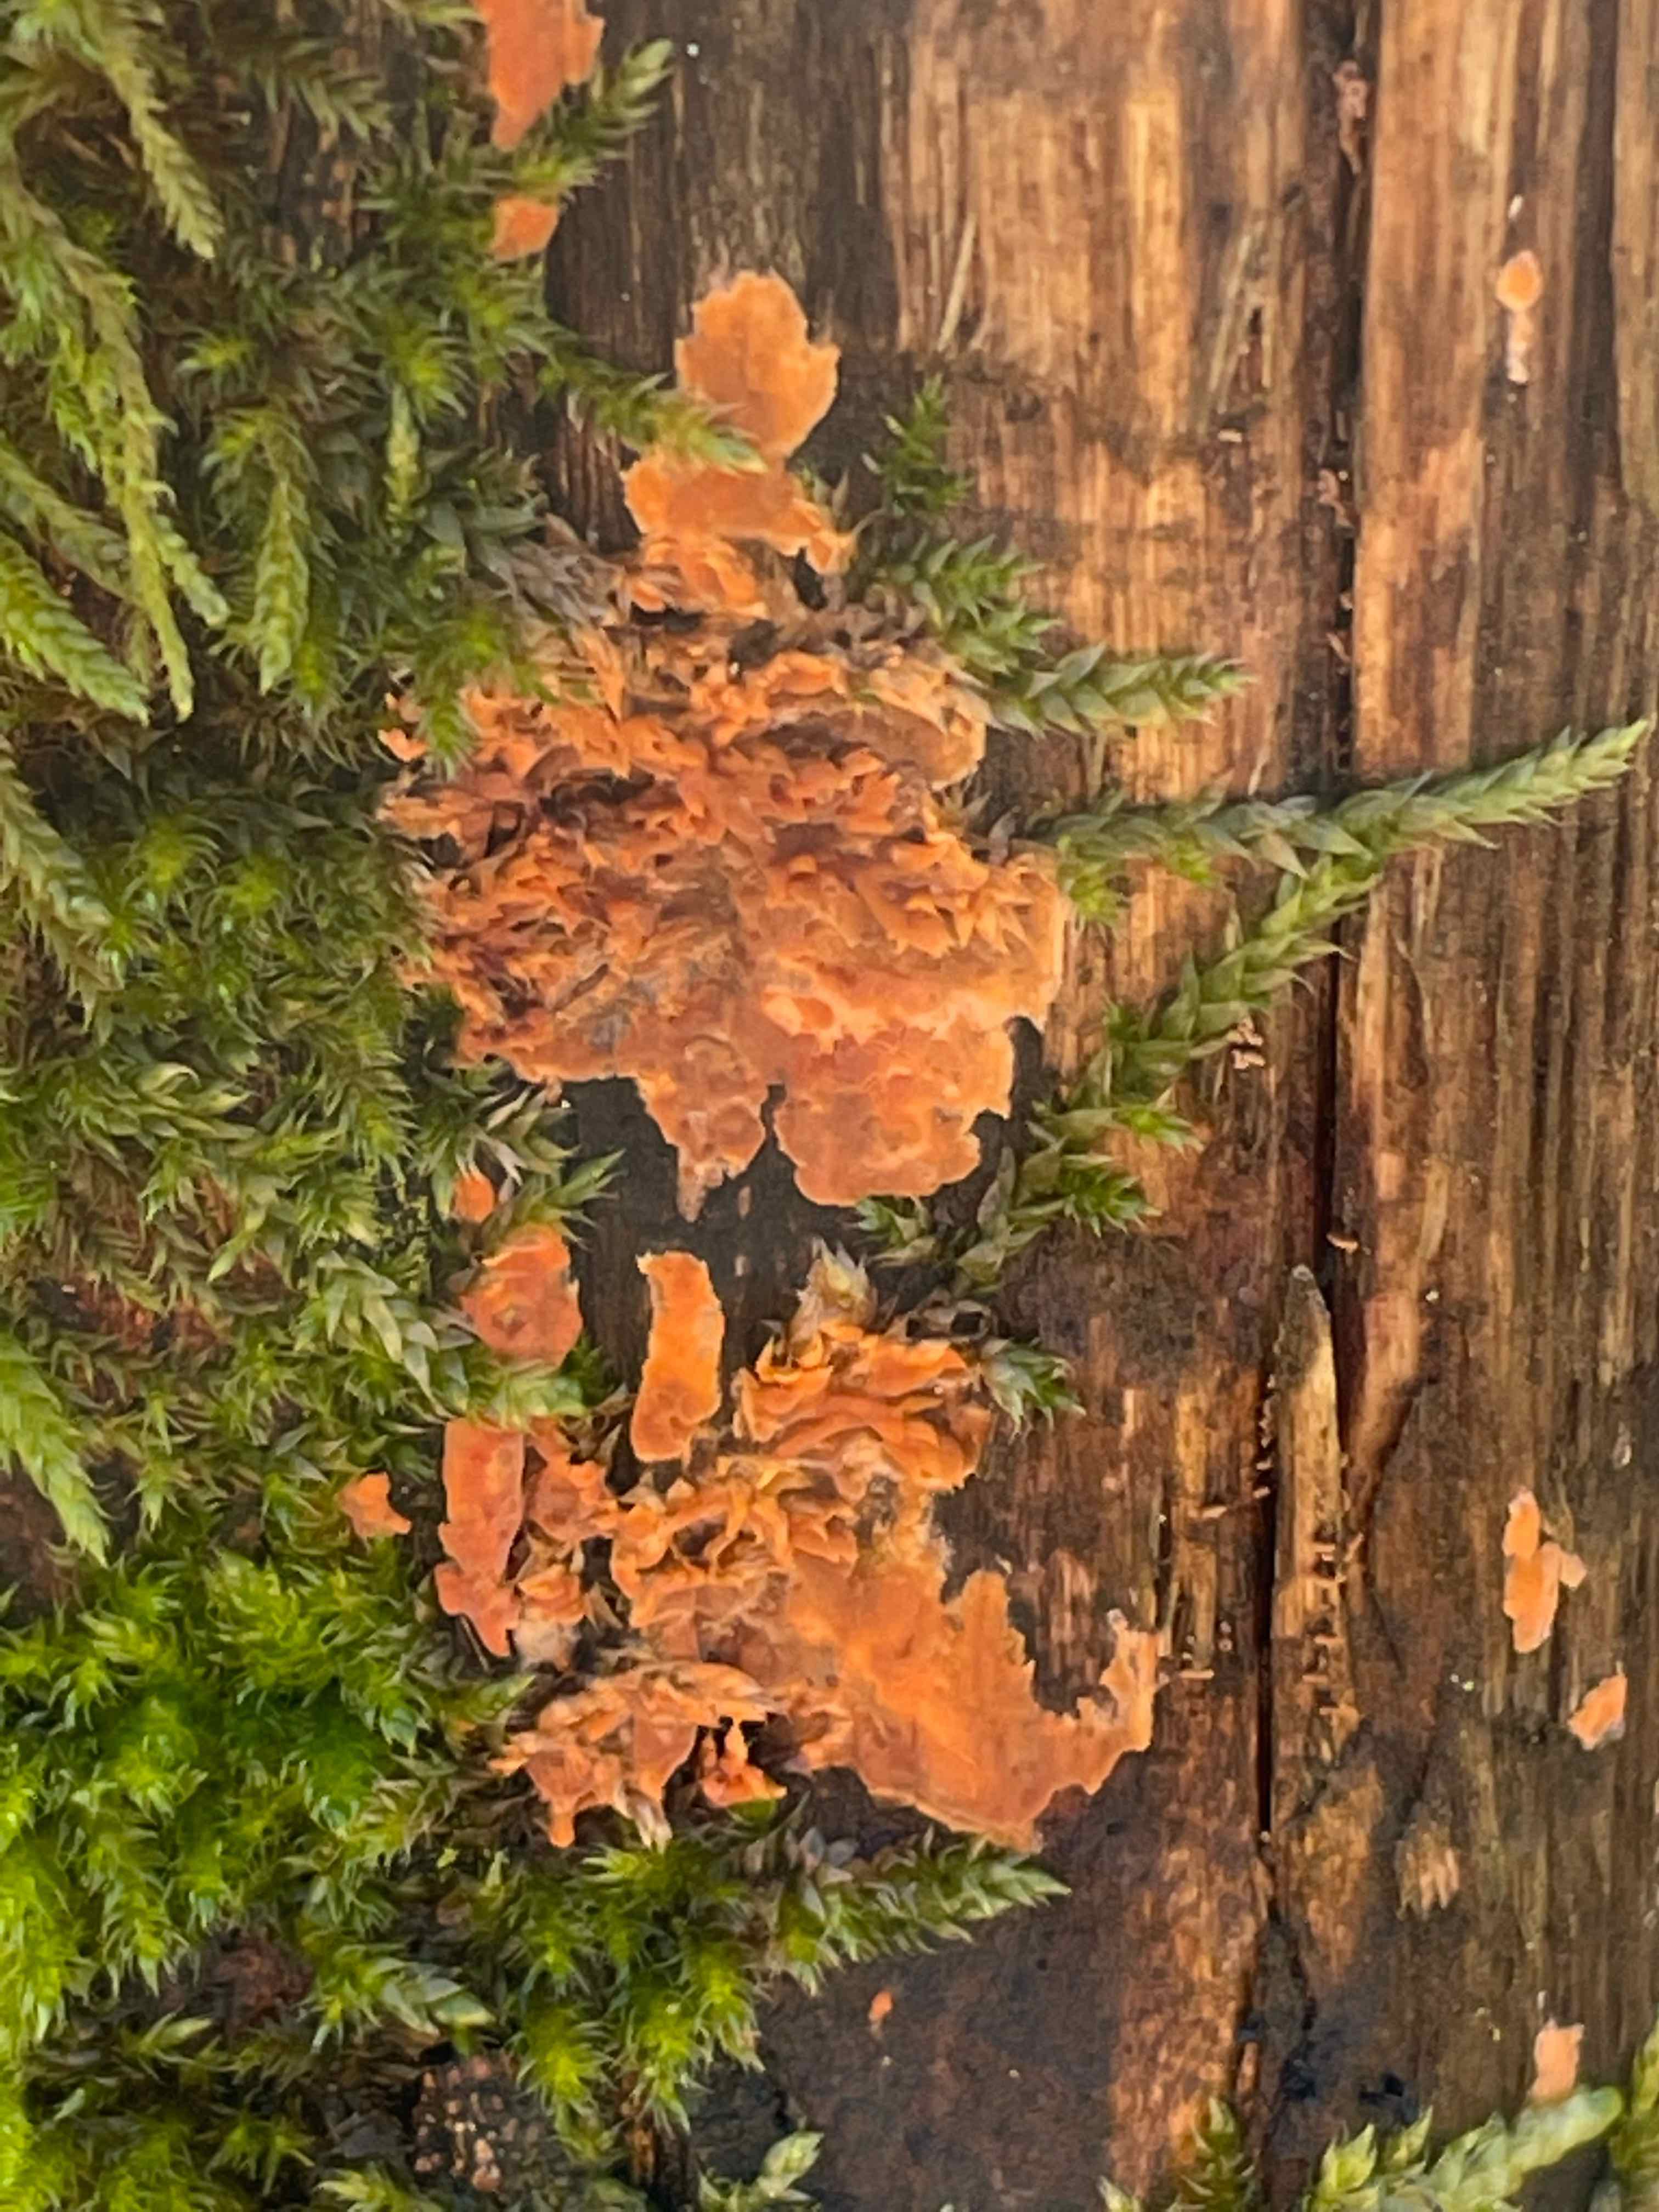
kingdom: Fungi
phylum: Basidiomycota
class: Agaricomycetes
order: Russulales
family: Peniophoraceae
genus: Peniophora
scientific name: Peniophora incarnata
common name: laksefarvet voksskind
